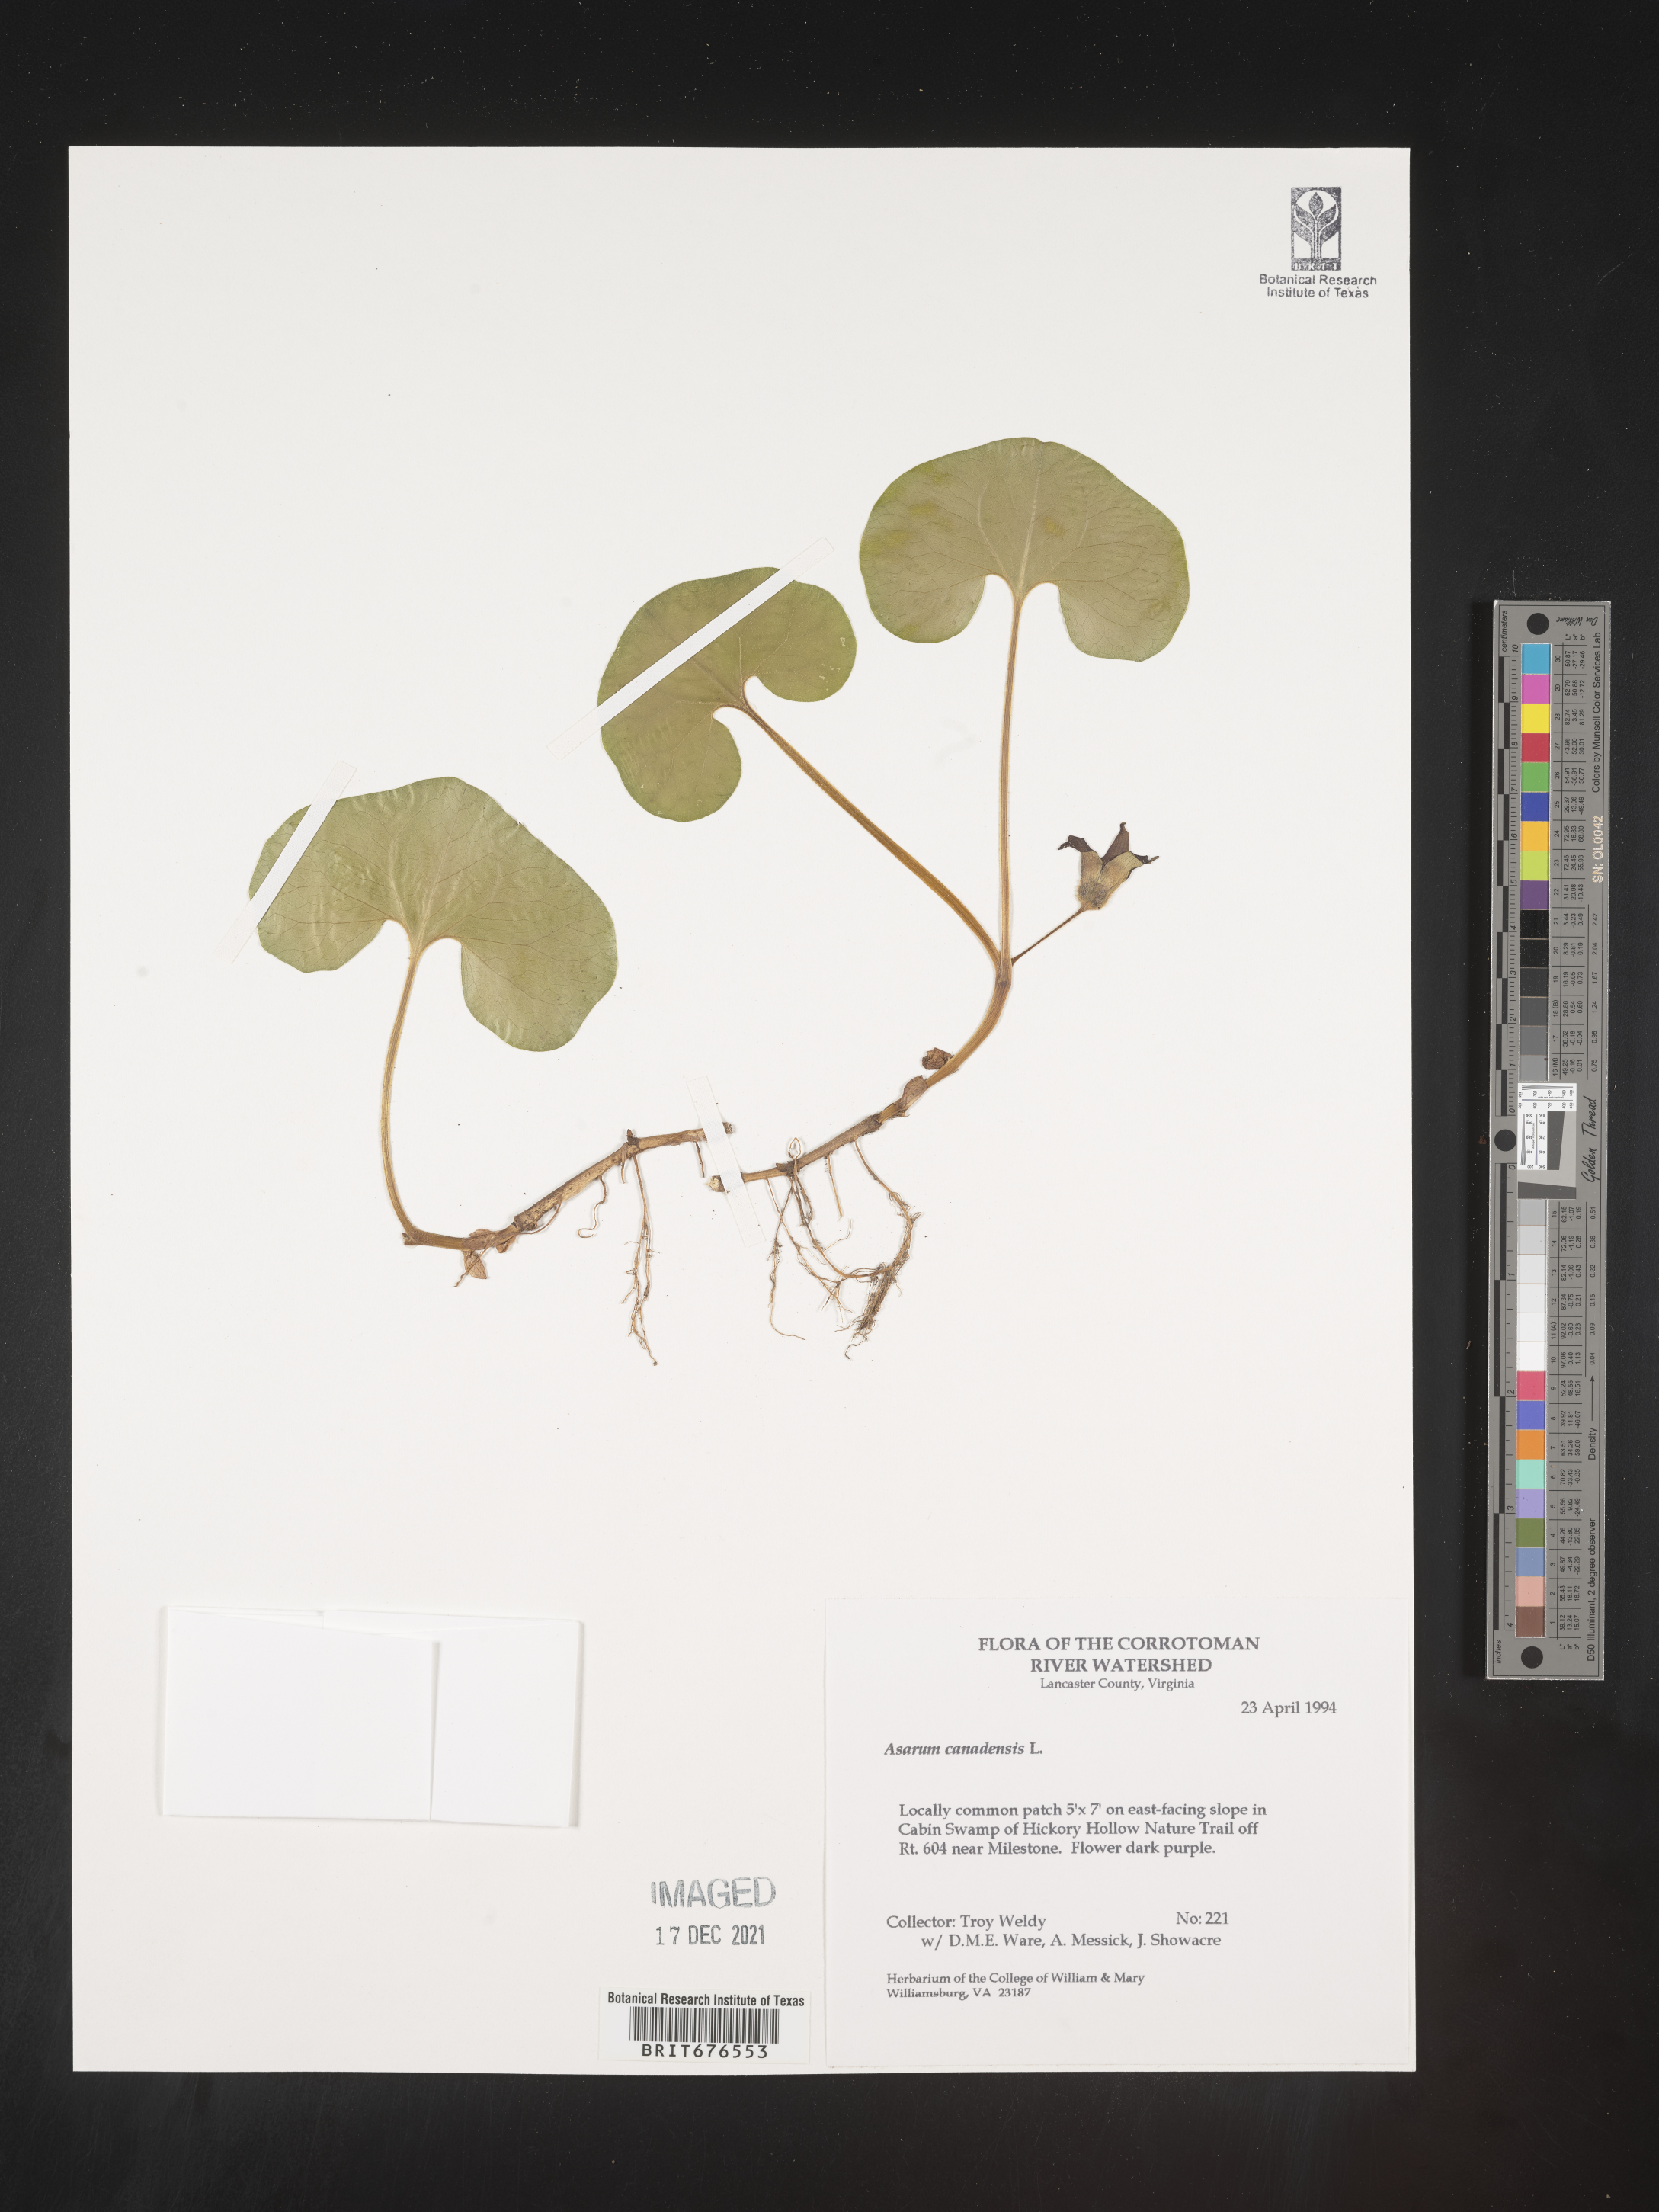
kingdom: Plantae
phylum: Tracheophyta
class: Magnoliopsida
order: Piperales
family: Aristolochiaceae
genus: Asarum
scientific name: Asarum canadense
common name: Wild ginger
